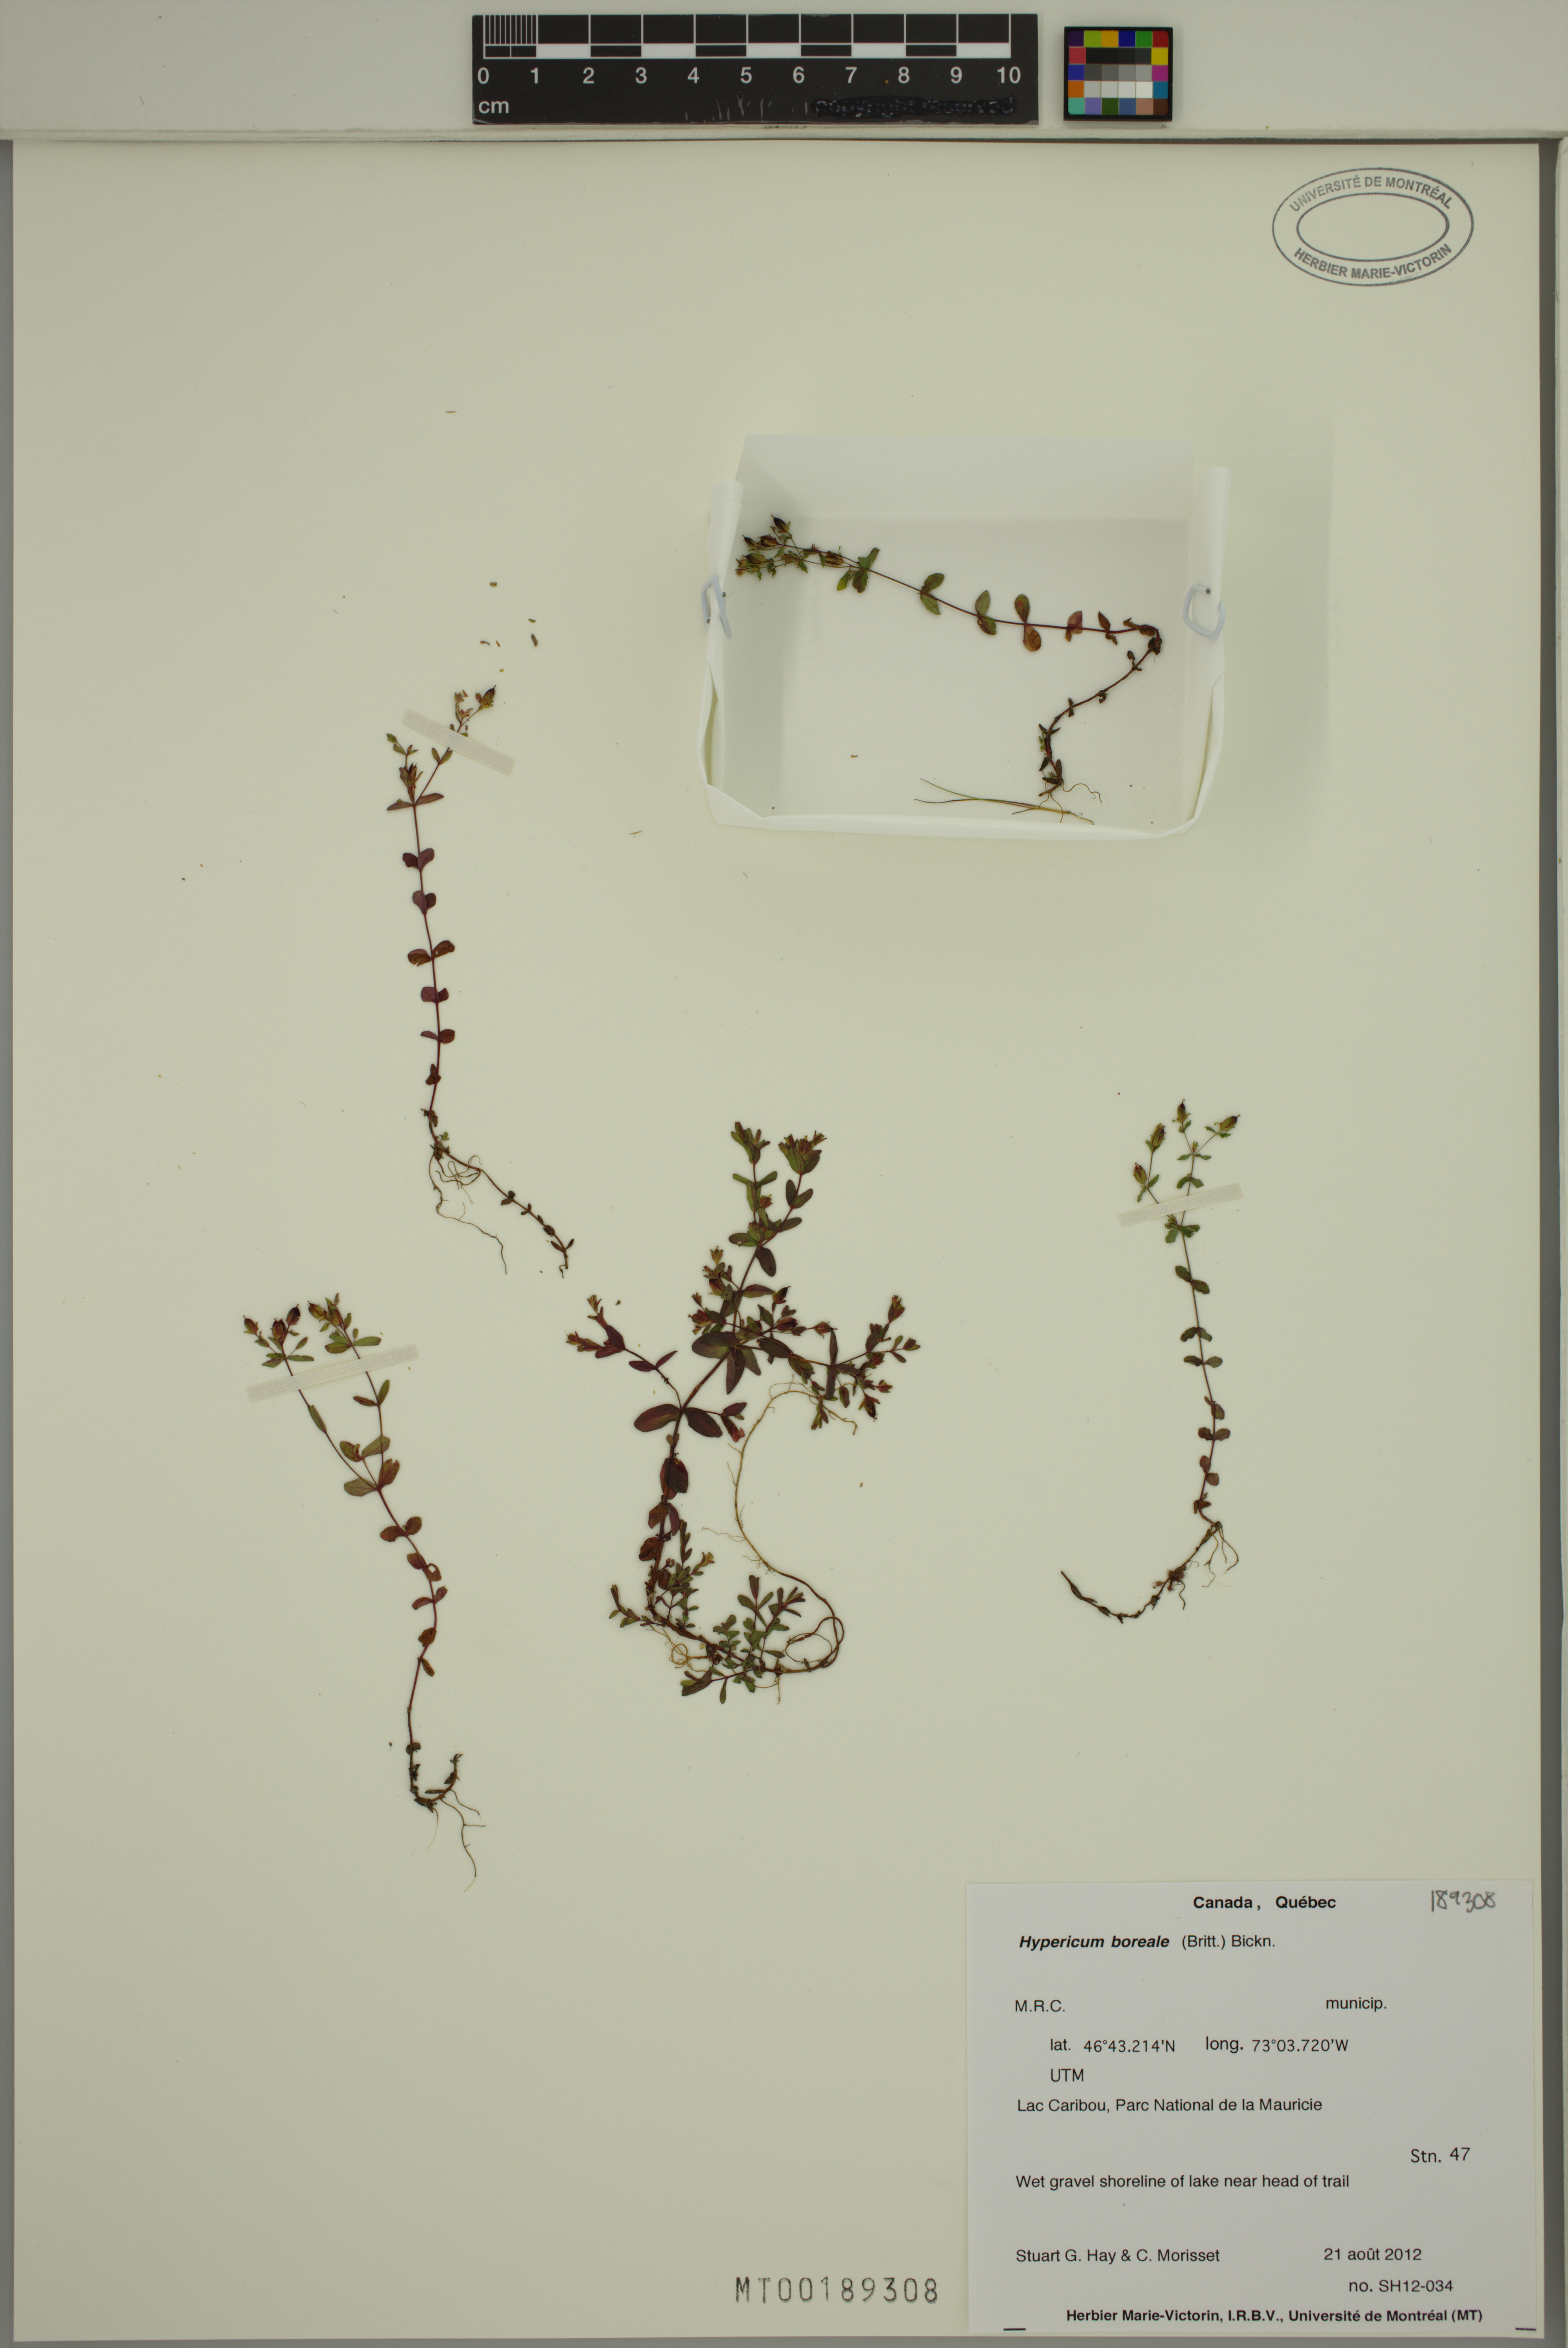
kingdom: Plantae
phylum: Tracheophyta
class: Magnoliopsida
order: Malpighiales
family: Hypericaceae
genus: Hypericum
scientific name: Hypericum boreale
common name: Northern bog st. john's-wort
